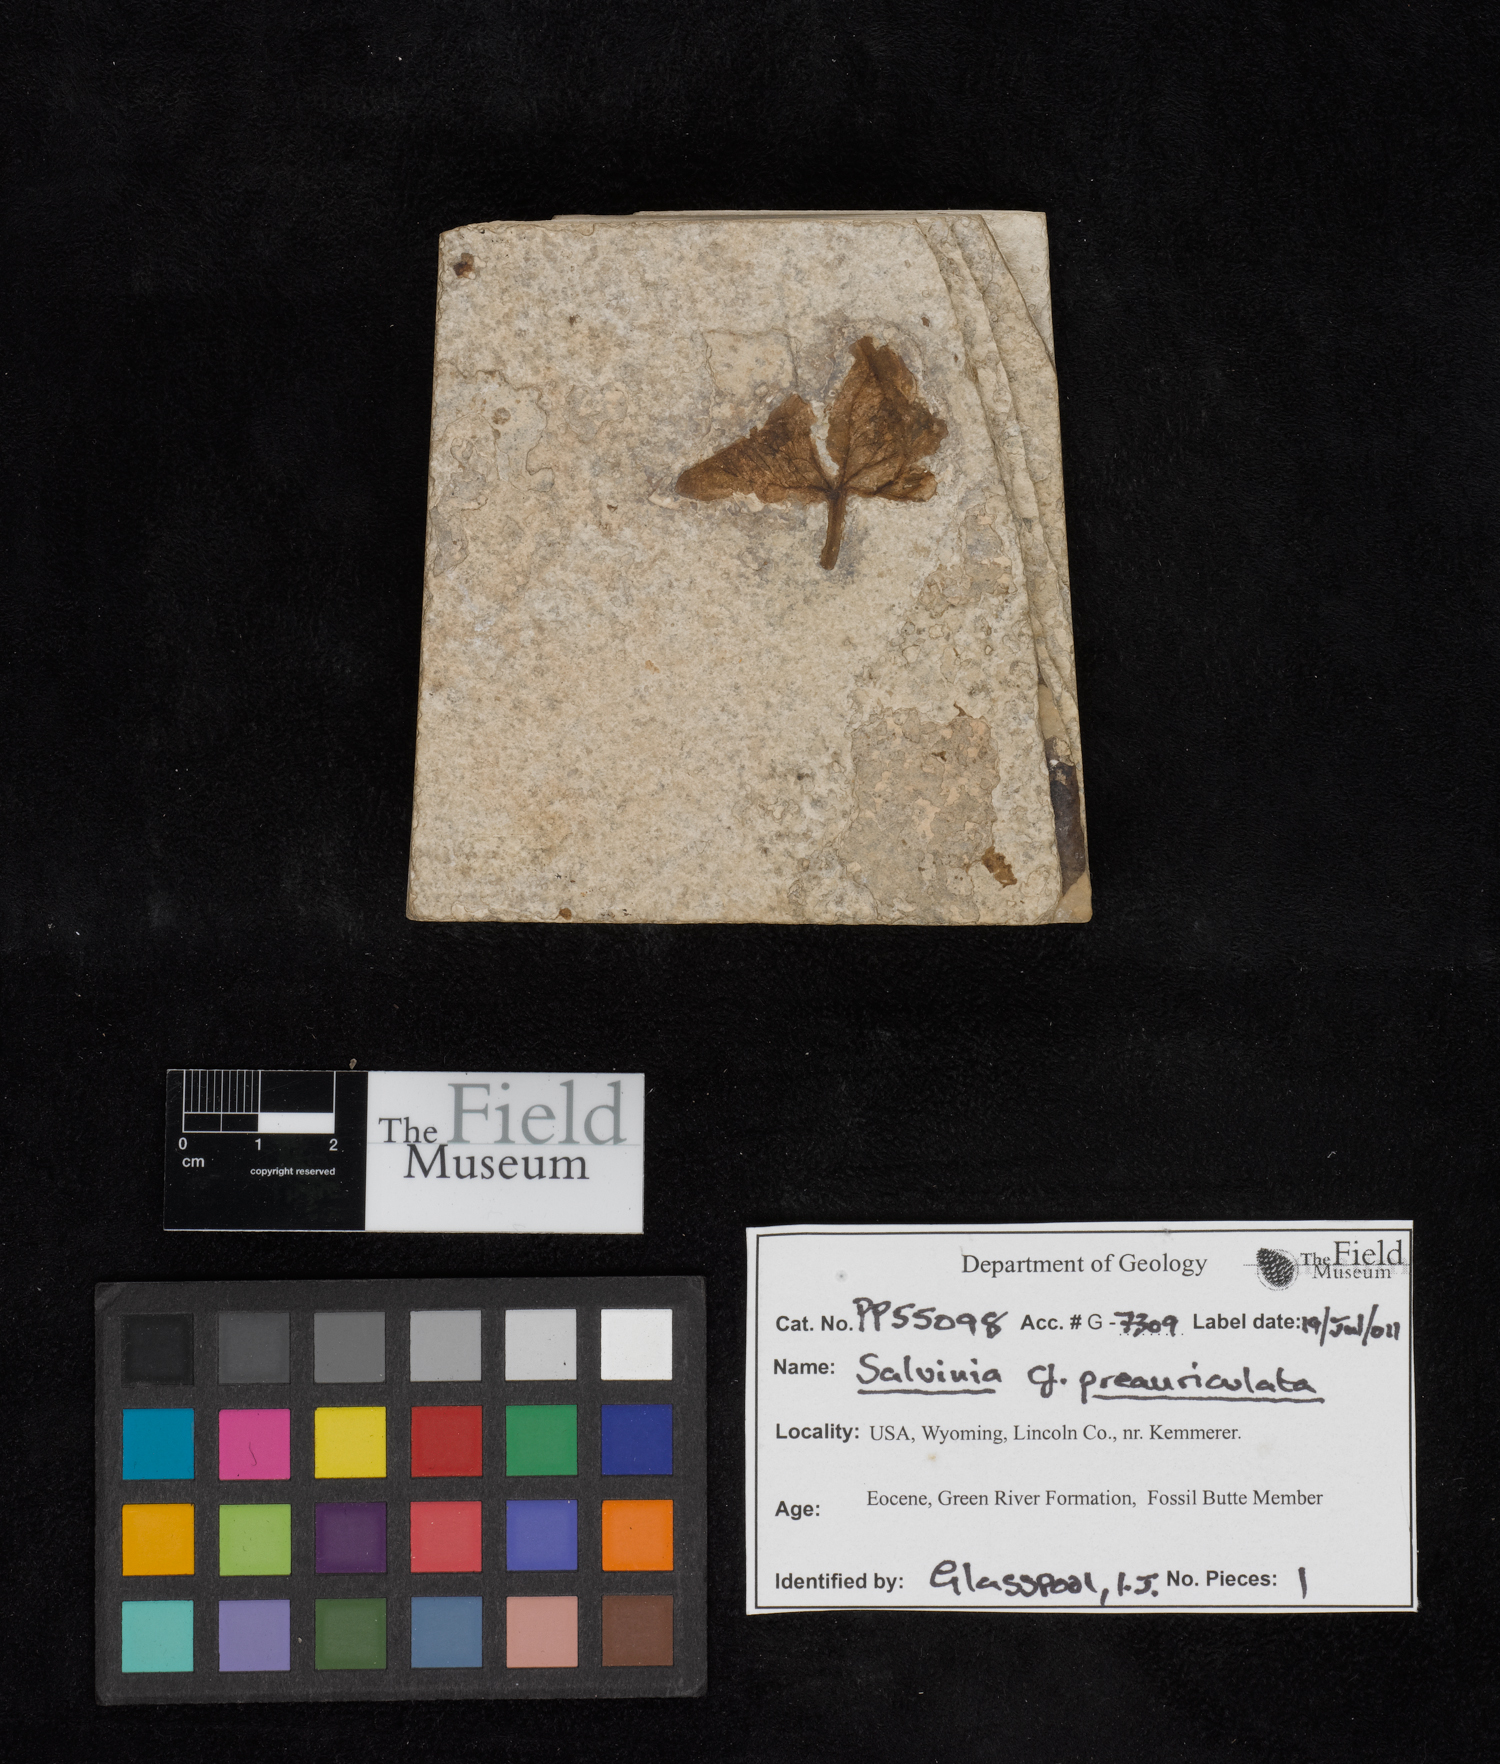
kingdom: Plantae
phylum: Tracheophyta
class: Polypodiopsida
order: Salviniales
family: Salviniaceae
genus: Salvinia
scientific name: Salvinia preauriculata
